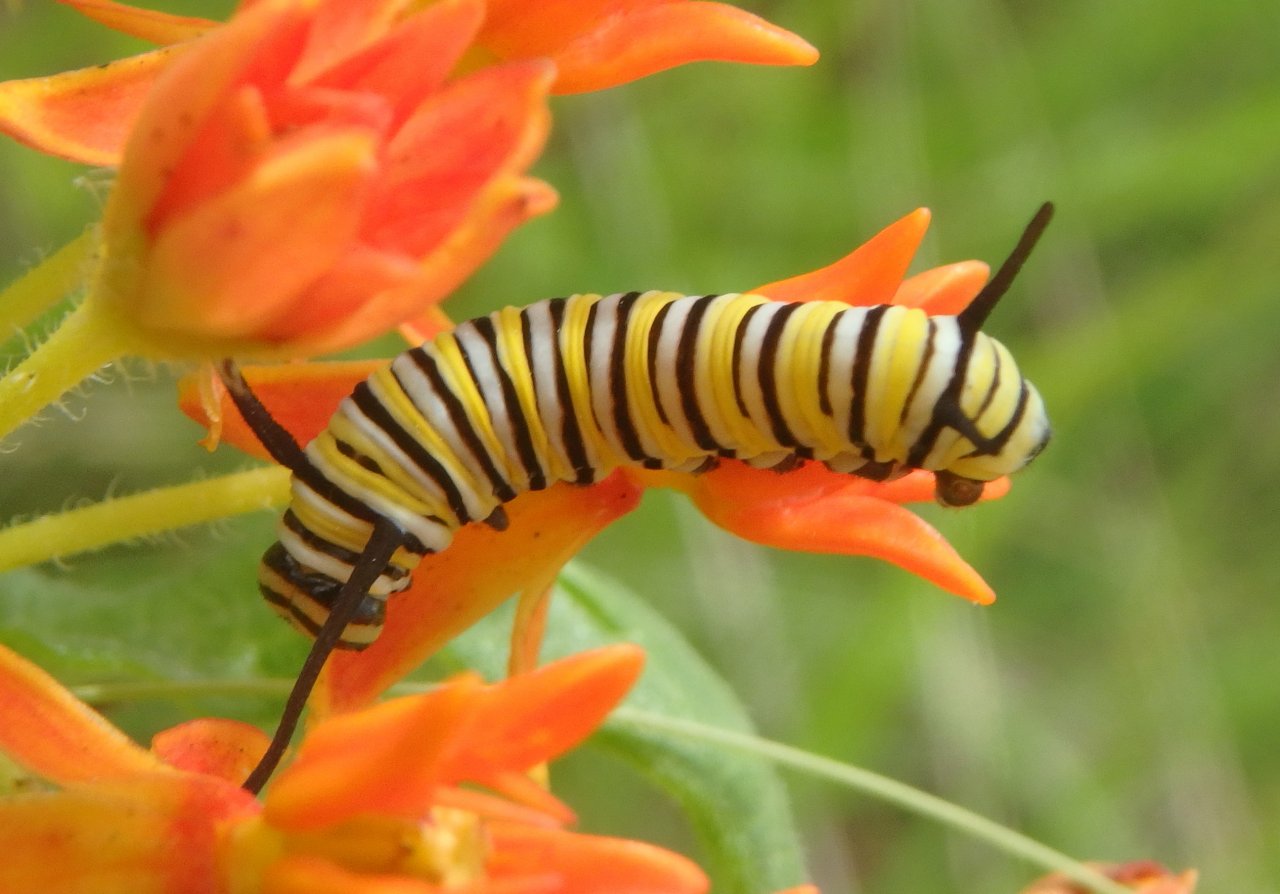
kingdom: Animalia
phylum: Arthropoda
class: Insecta
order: Lepidoptera
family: Nymphalidae
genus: Danaus
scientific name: Danaus plexippus
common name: Monarch
